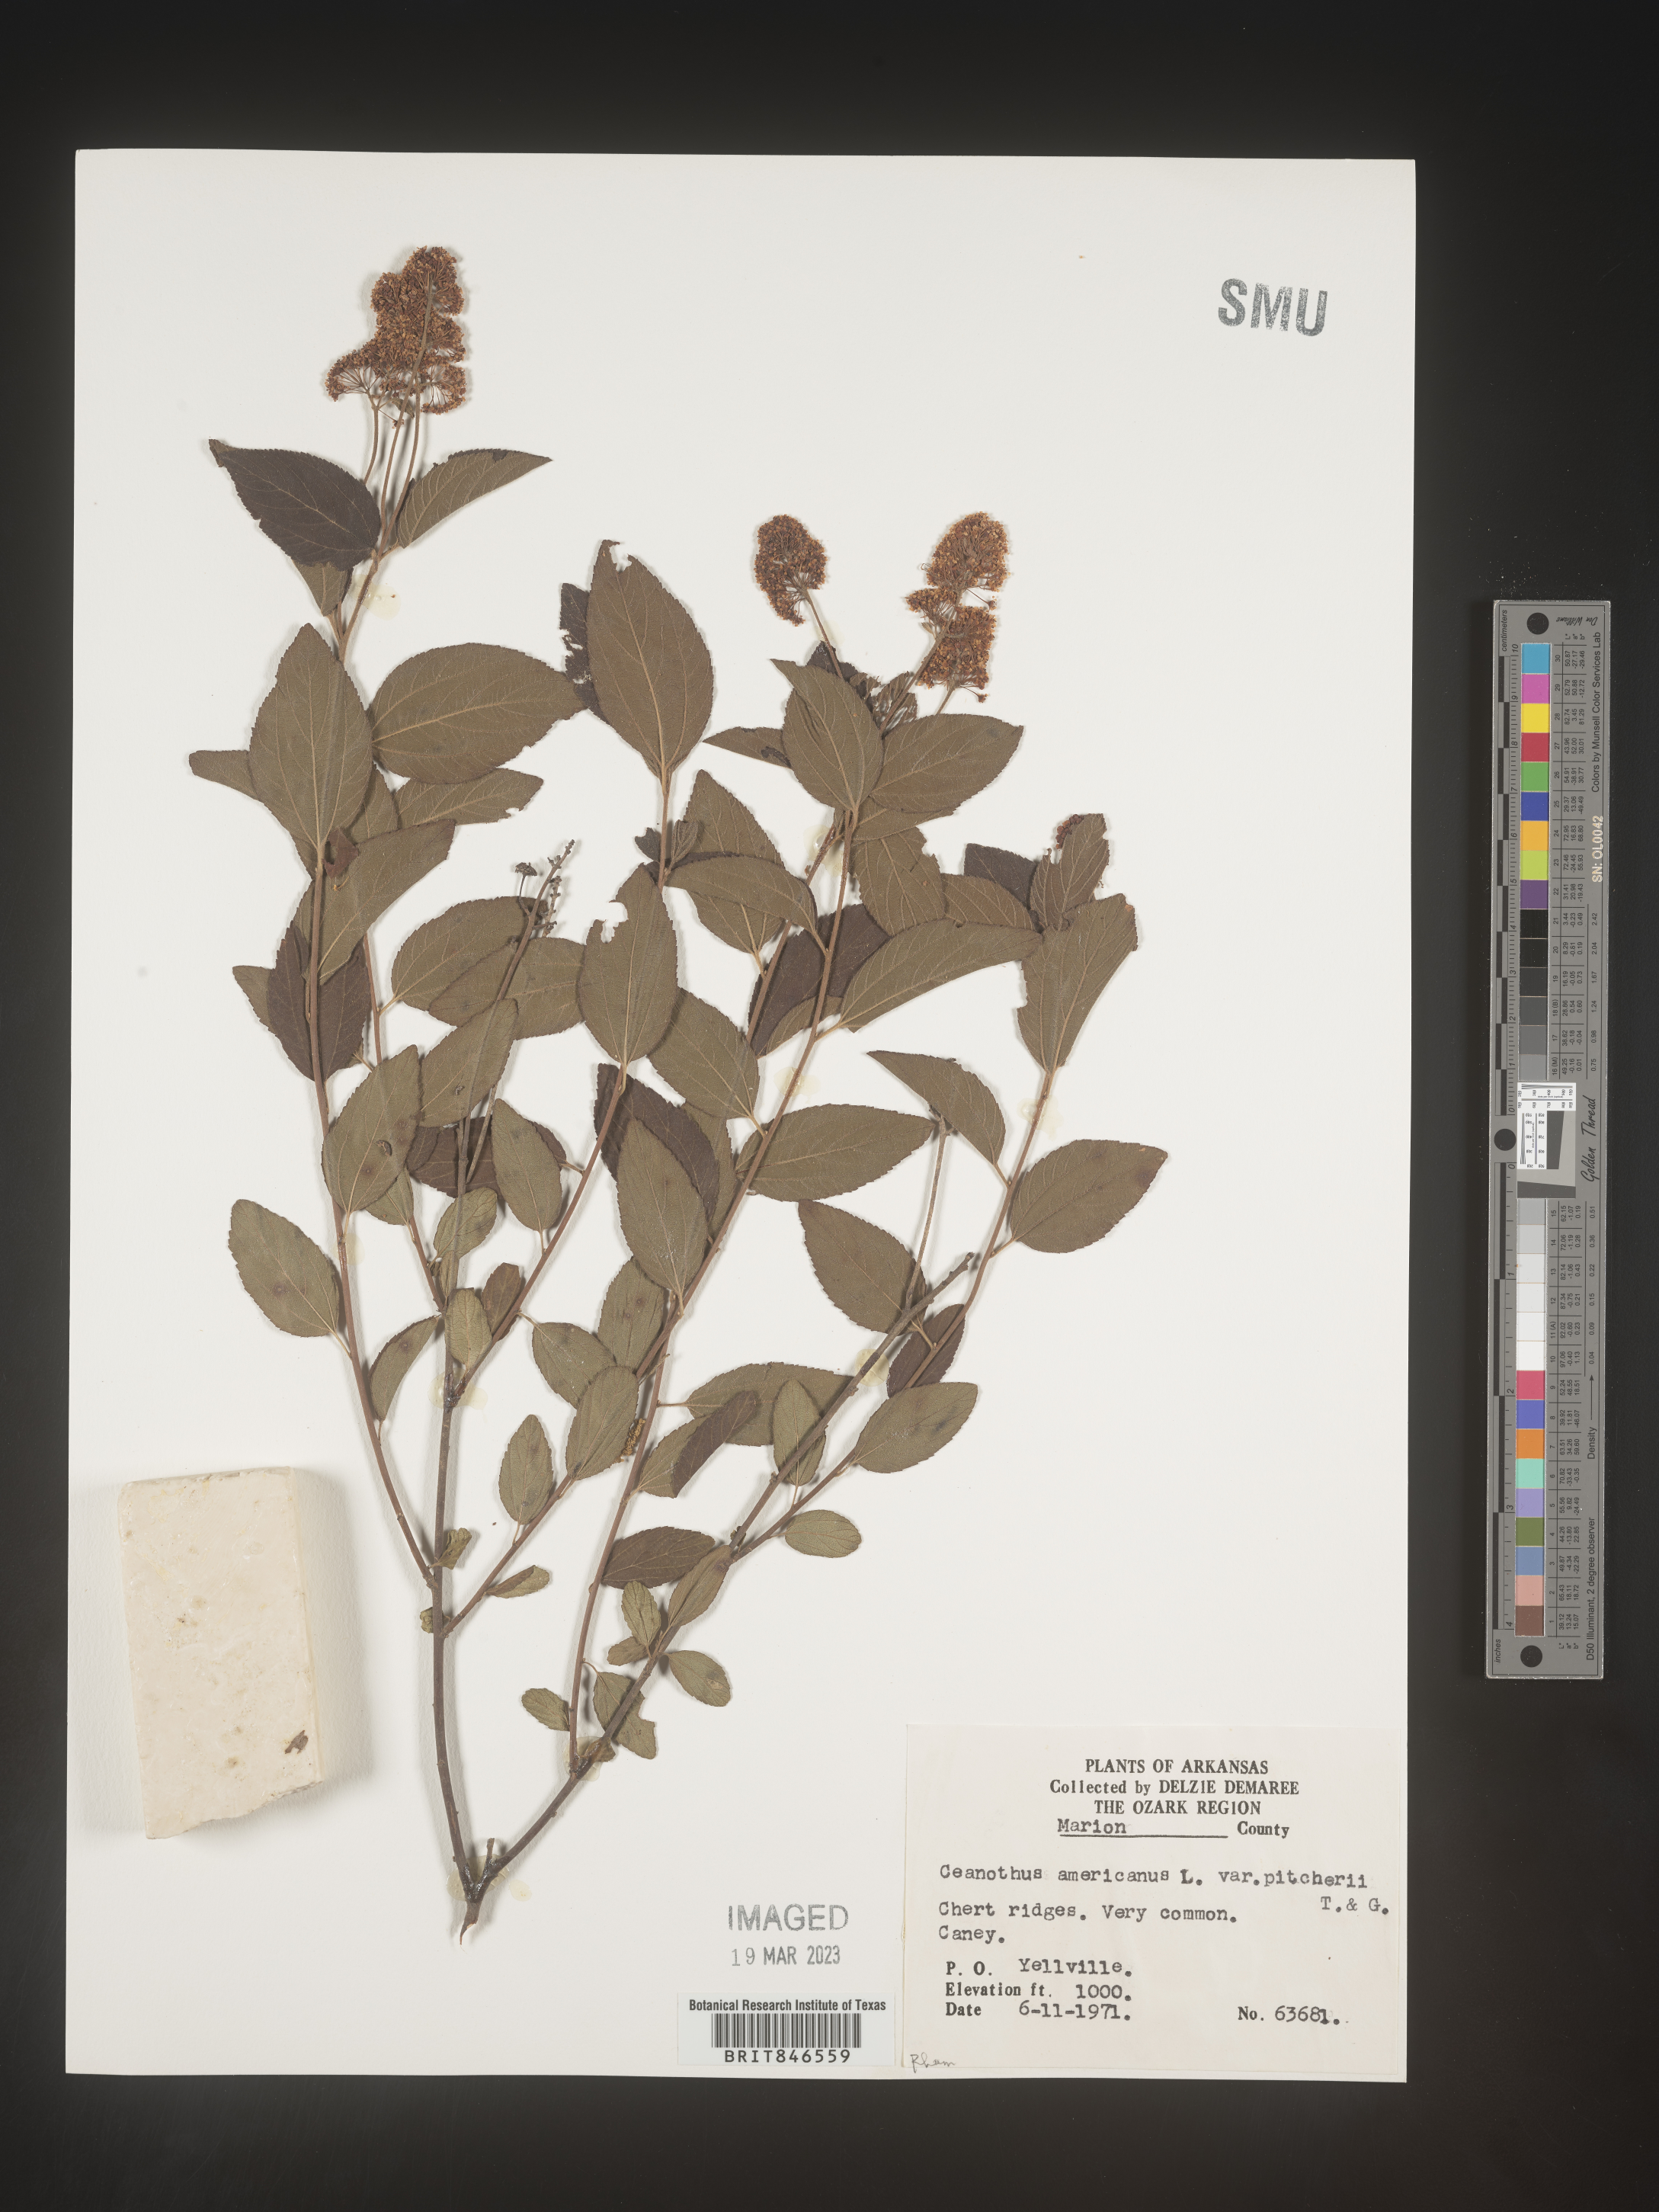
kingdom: Plantae
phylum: Tracheophyta
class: Magnoliopsida
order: Rosales
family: Rhamnaceae
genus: Ceanothus
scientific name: Ceanothus americanus
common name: Redroot
